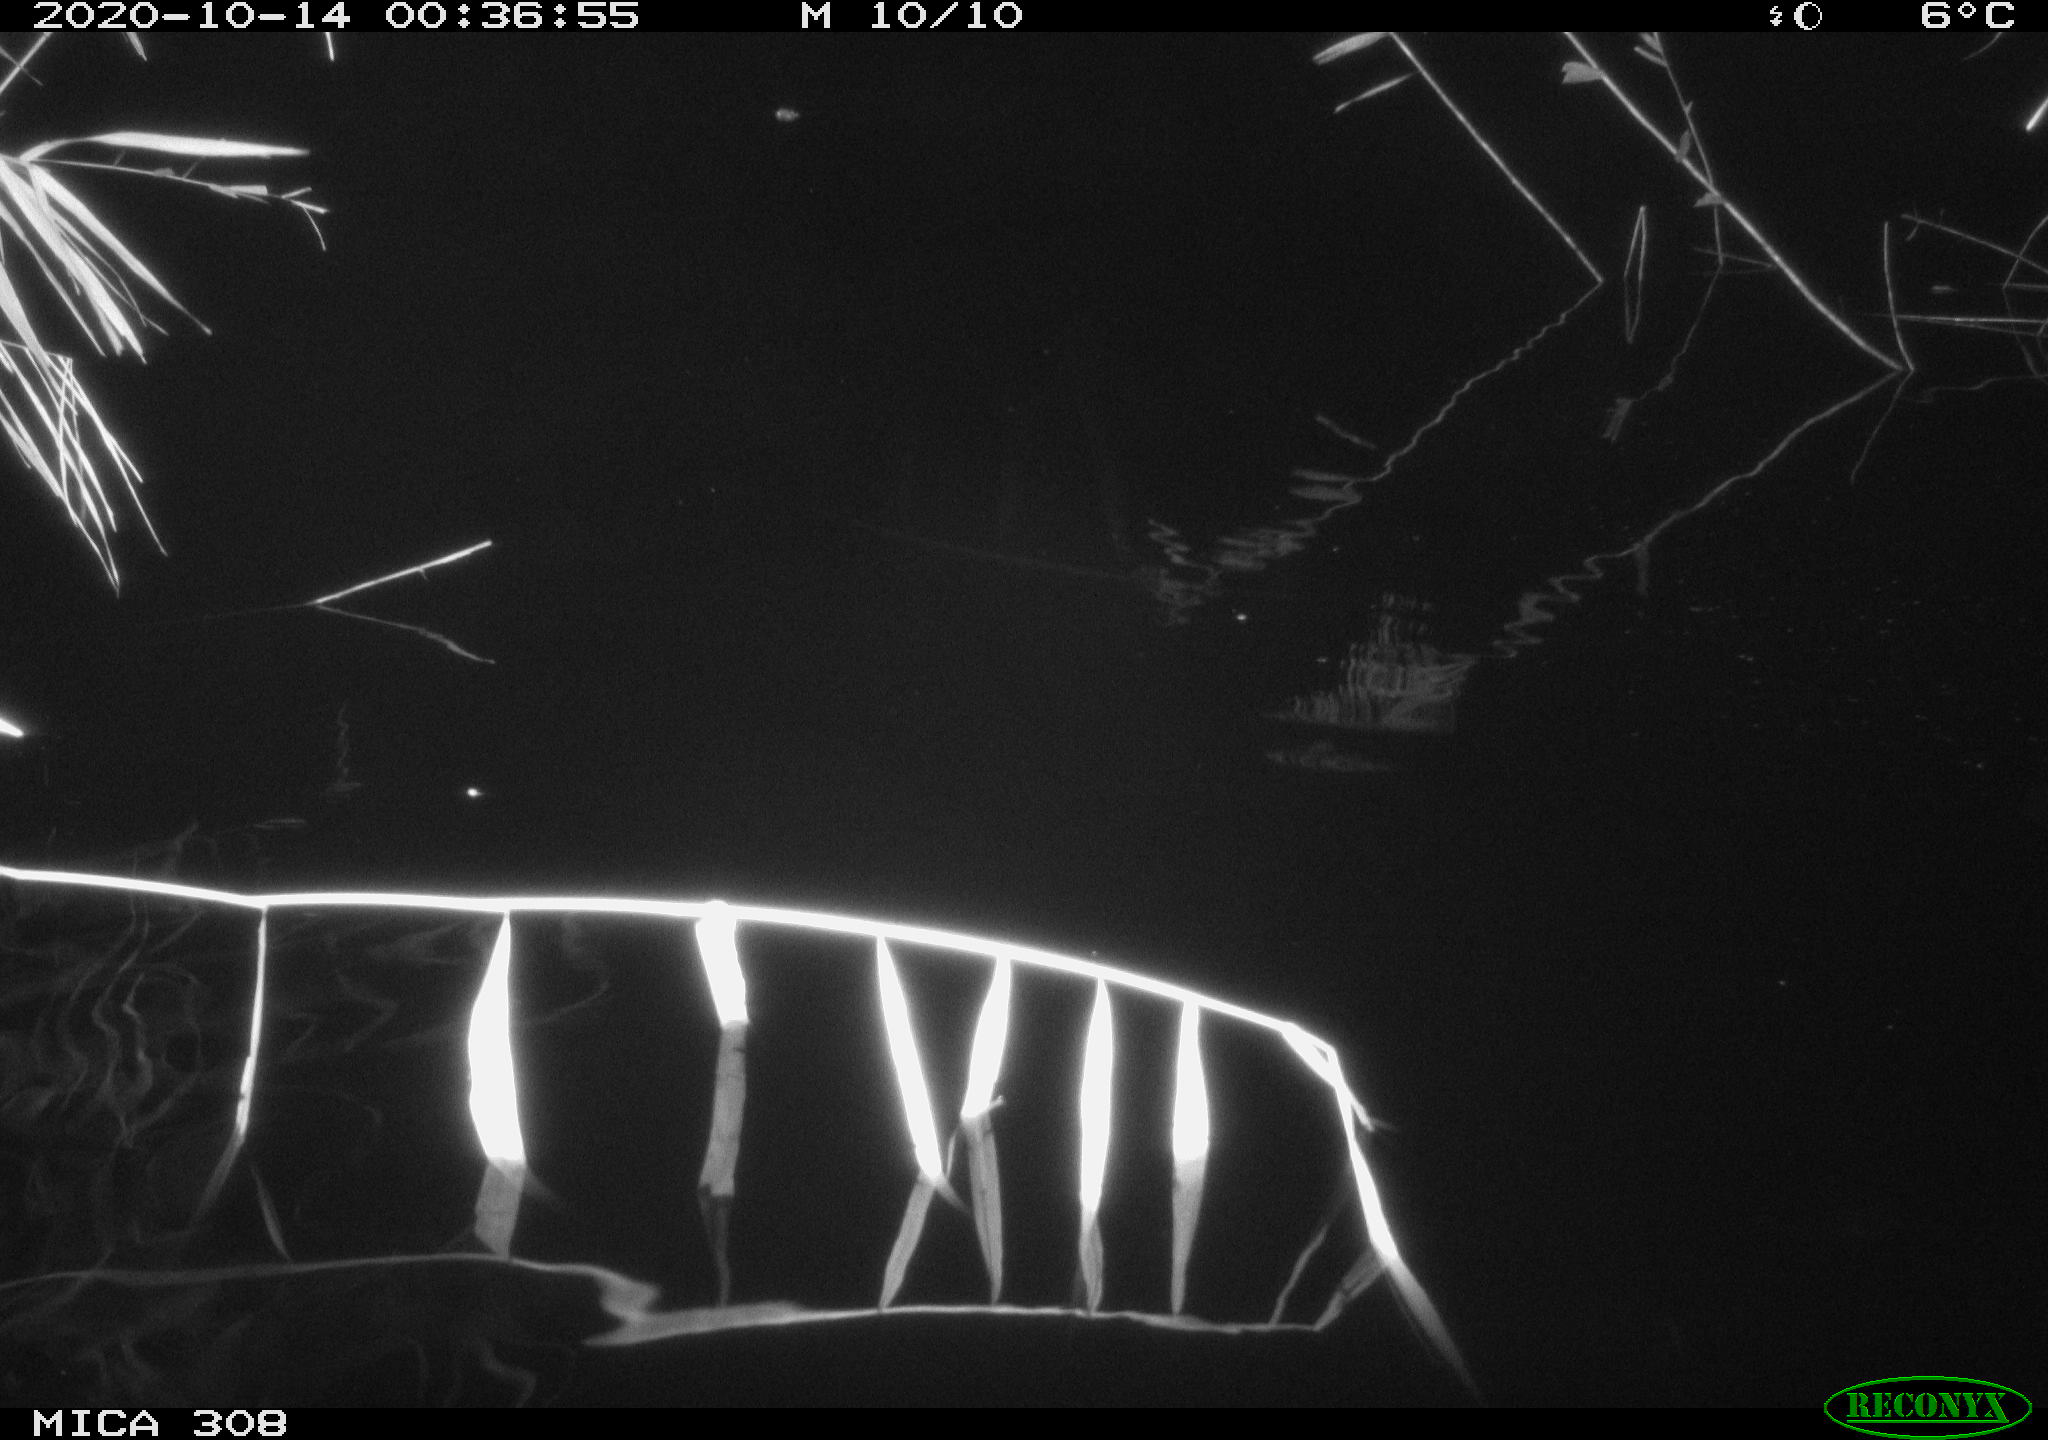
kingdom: Animalia
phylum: Chordata
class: Mammalia
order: Rodentia
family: Cricetidae
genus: Ondatra
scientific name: Ondatra zibethicus
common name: Muskrat
